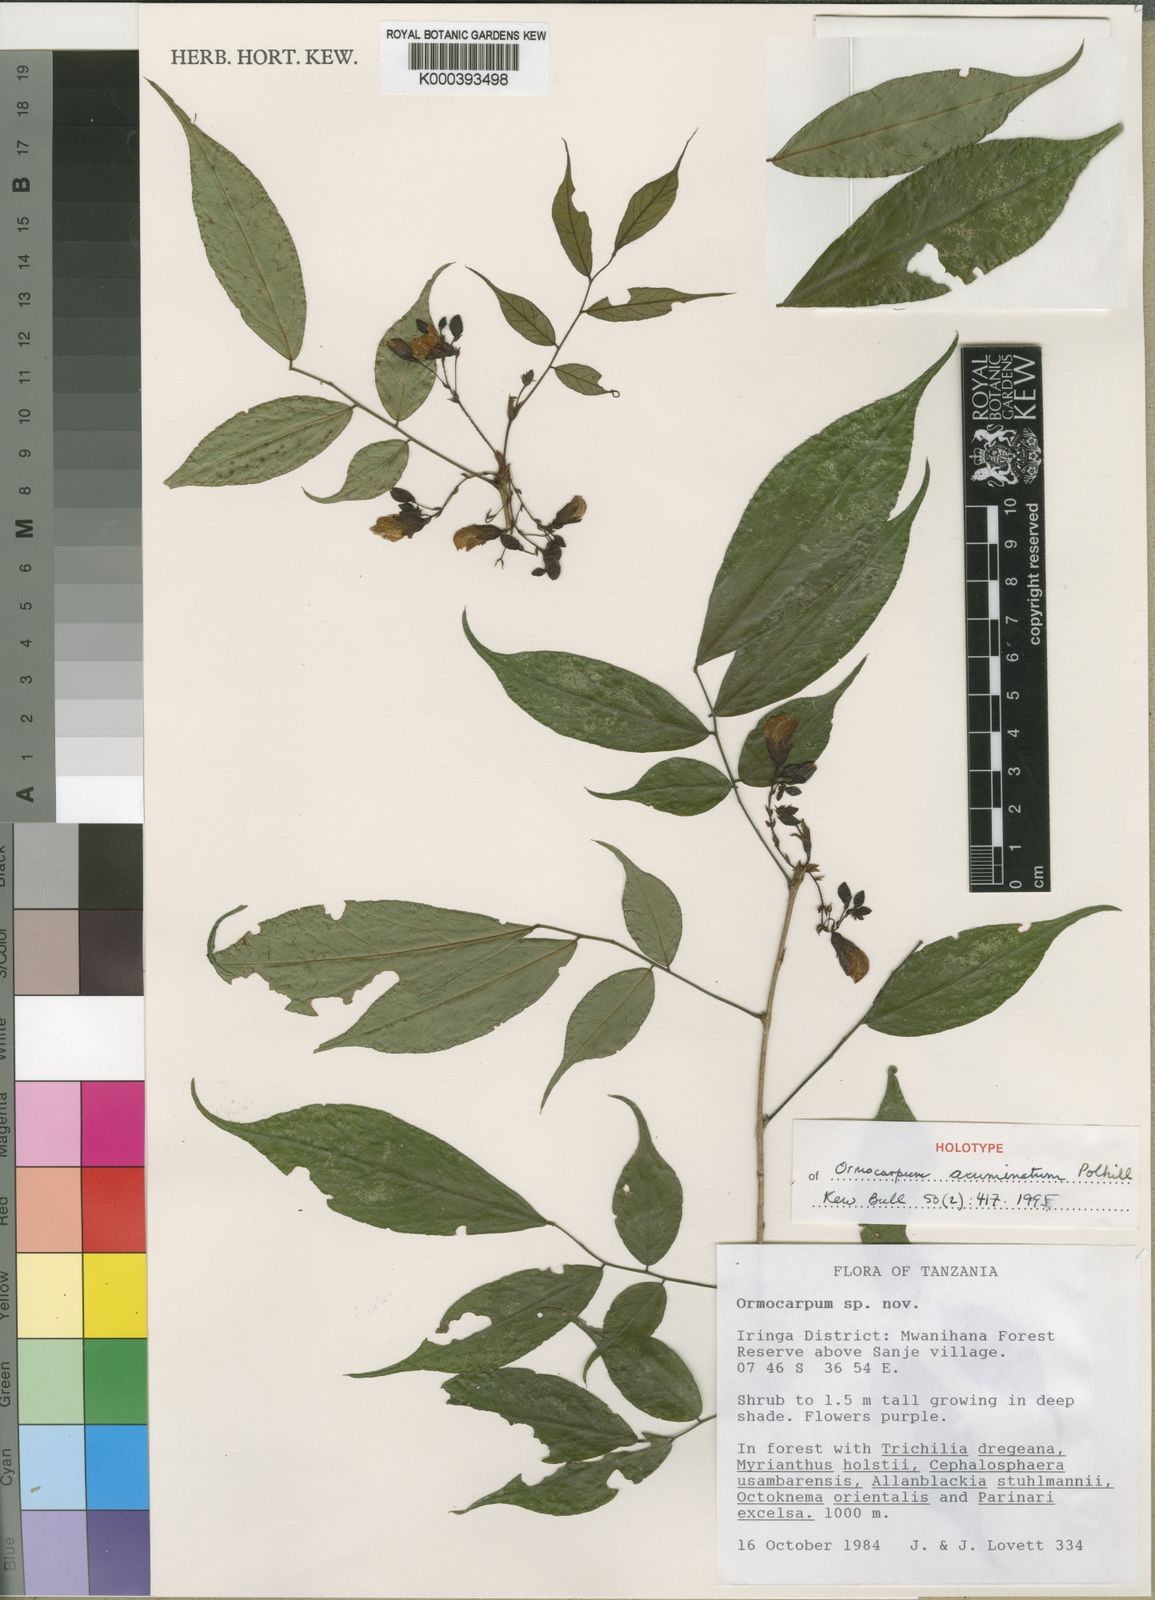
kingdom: Plantae
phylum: Tracheophyta
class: Magnoliopsida
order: Fabales
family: Fabaceae
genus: Ormocarpum
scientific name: Ormocarpum acuminatum
